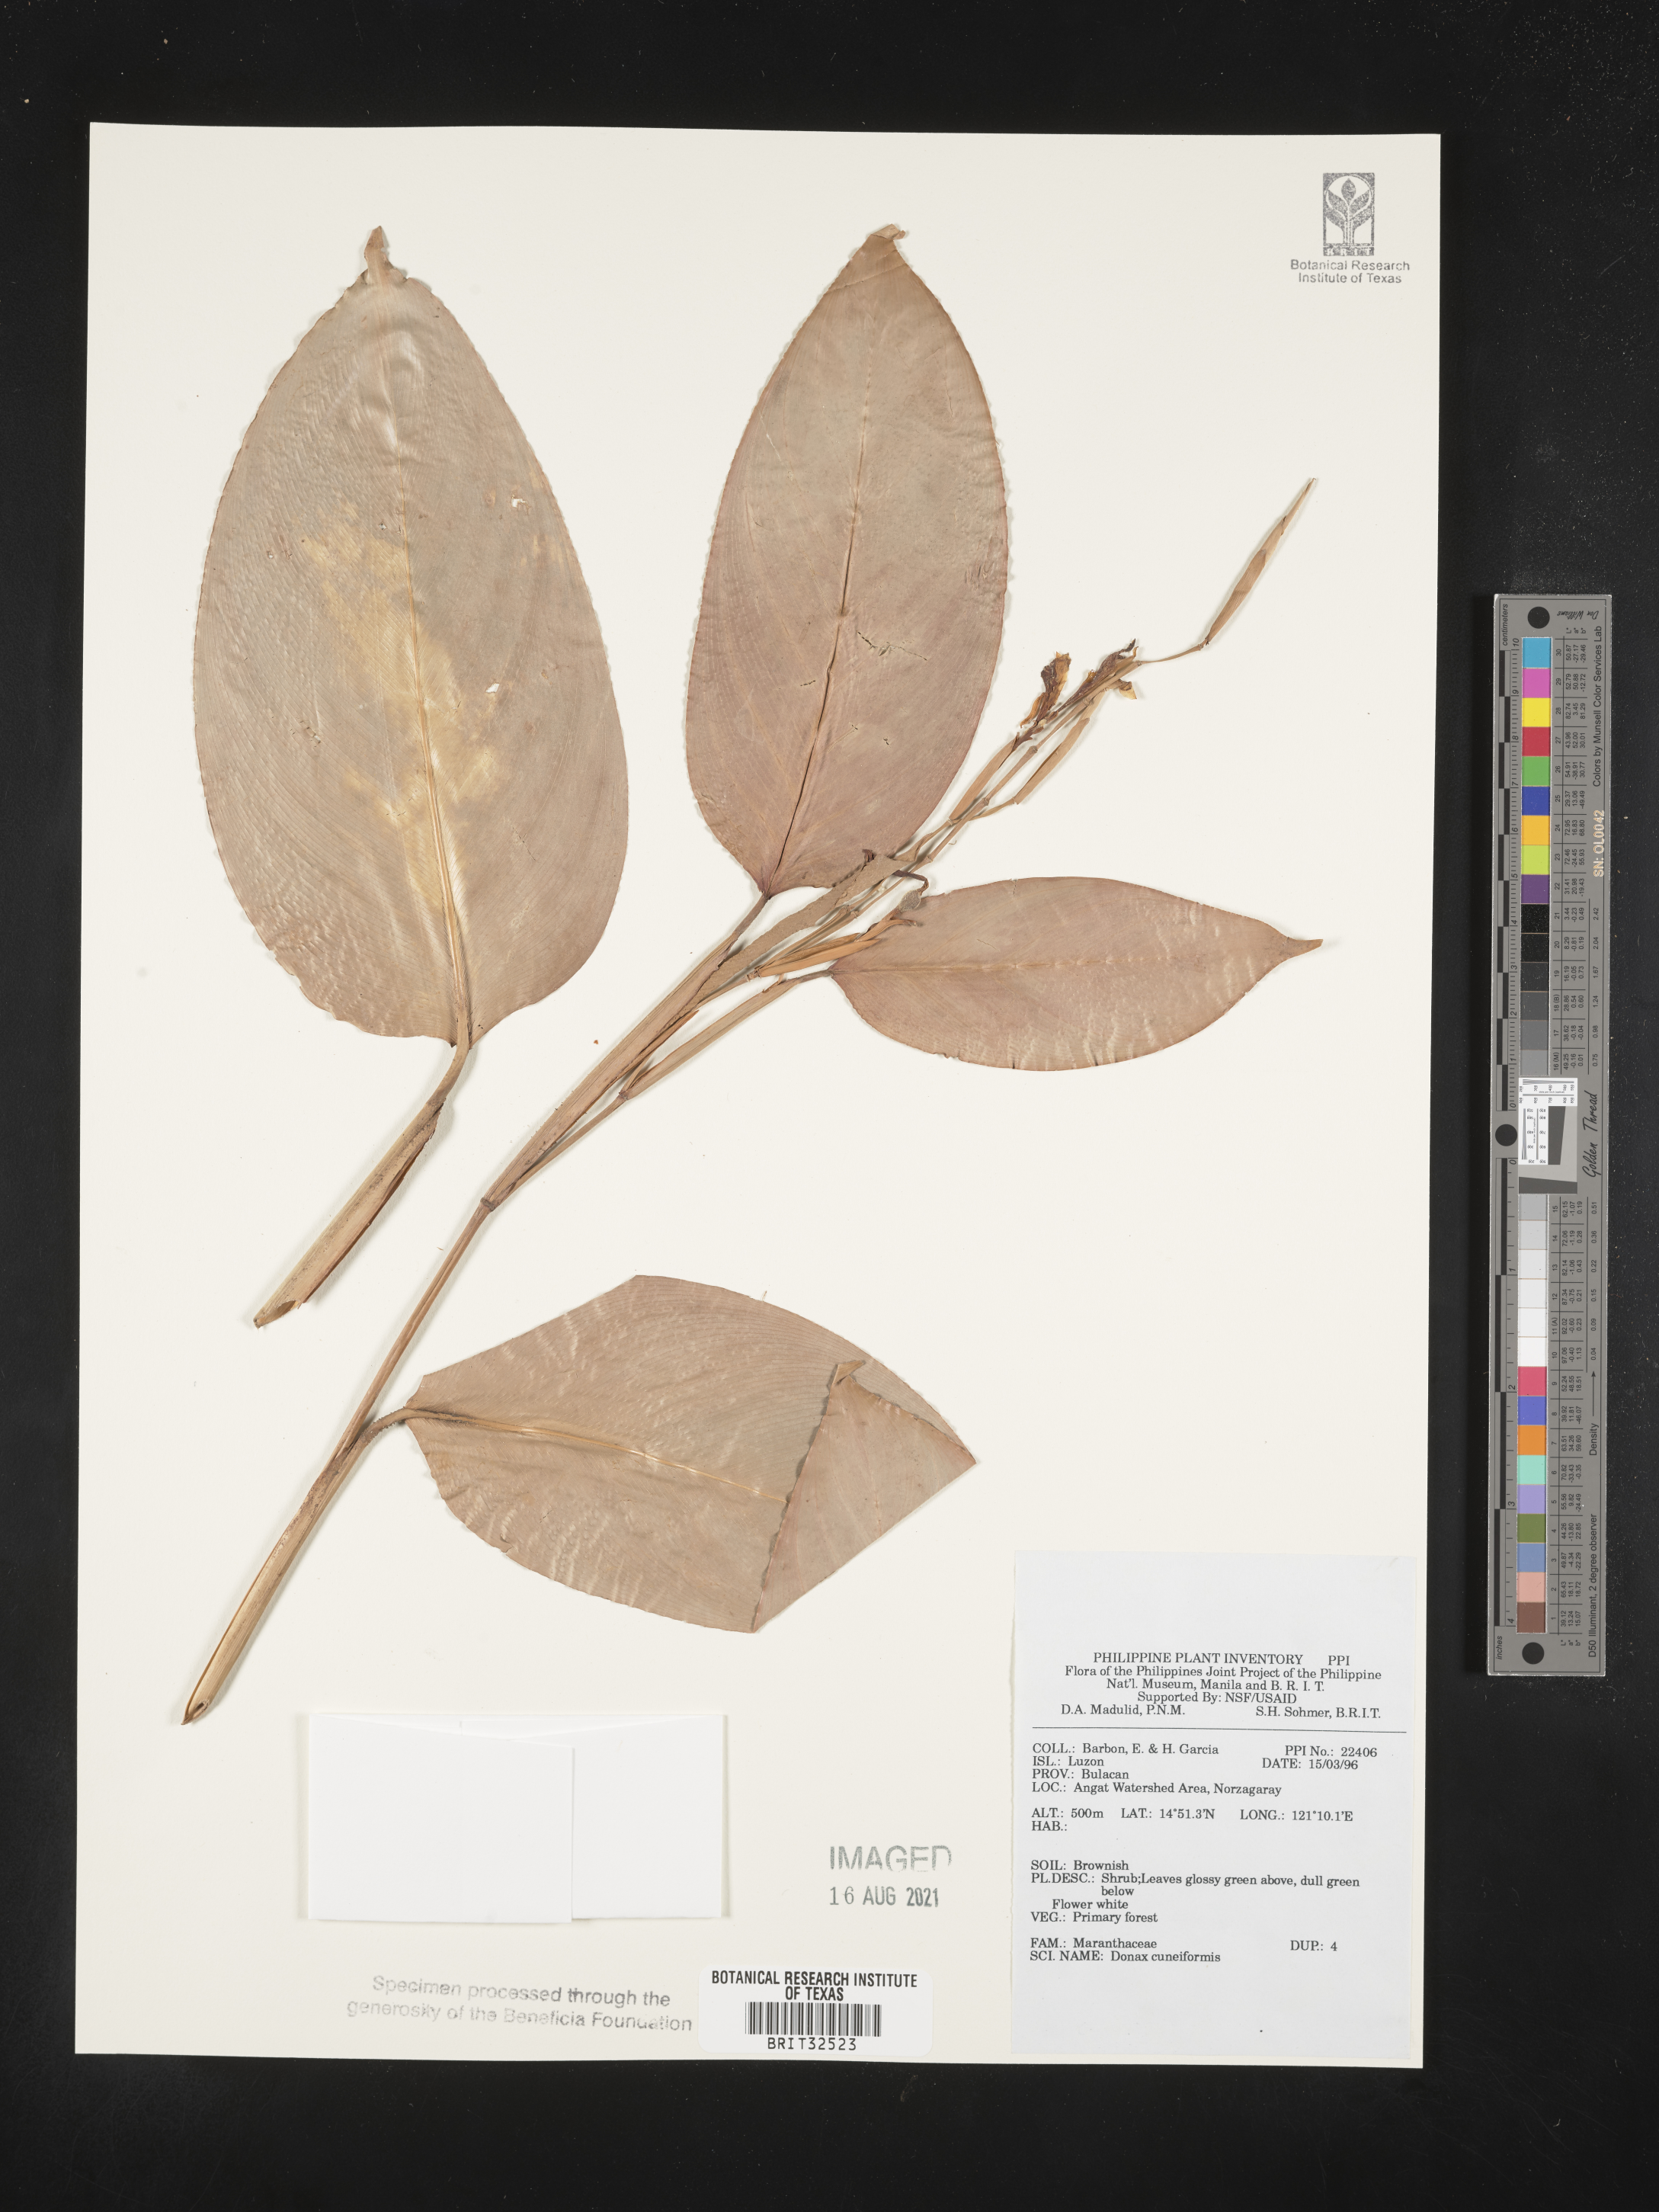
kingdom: Plantae
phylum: Tracheophyta
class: Liliopsida
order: Zingiberales
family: Marantaceae
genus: Donax
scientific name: Donax canniformis
